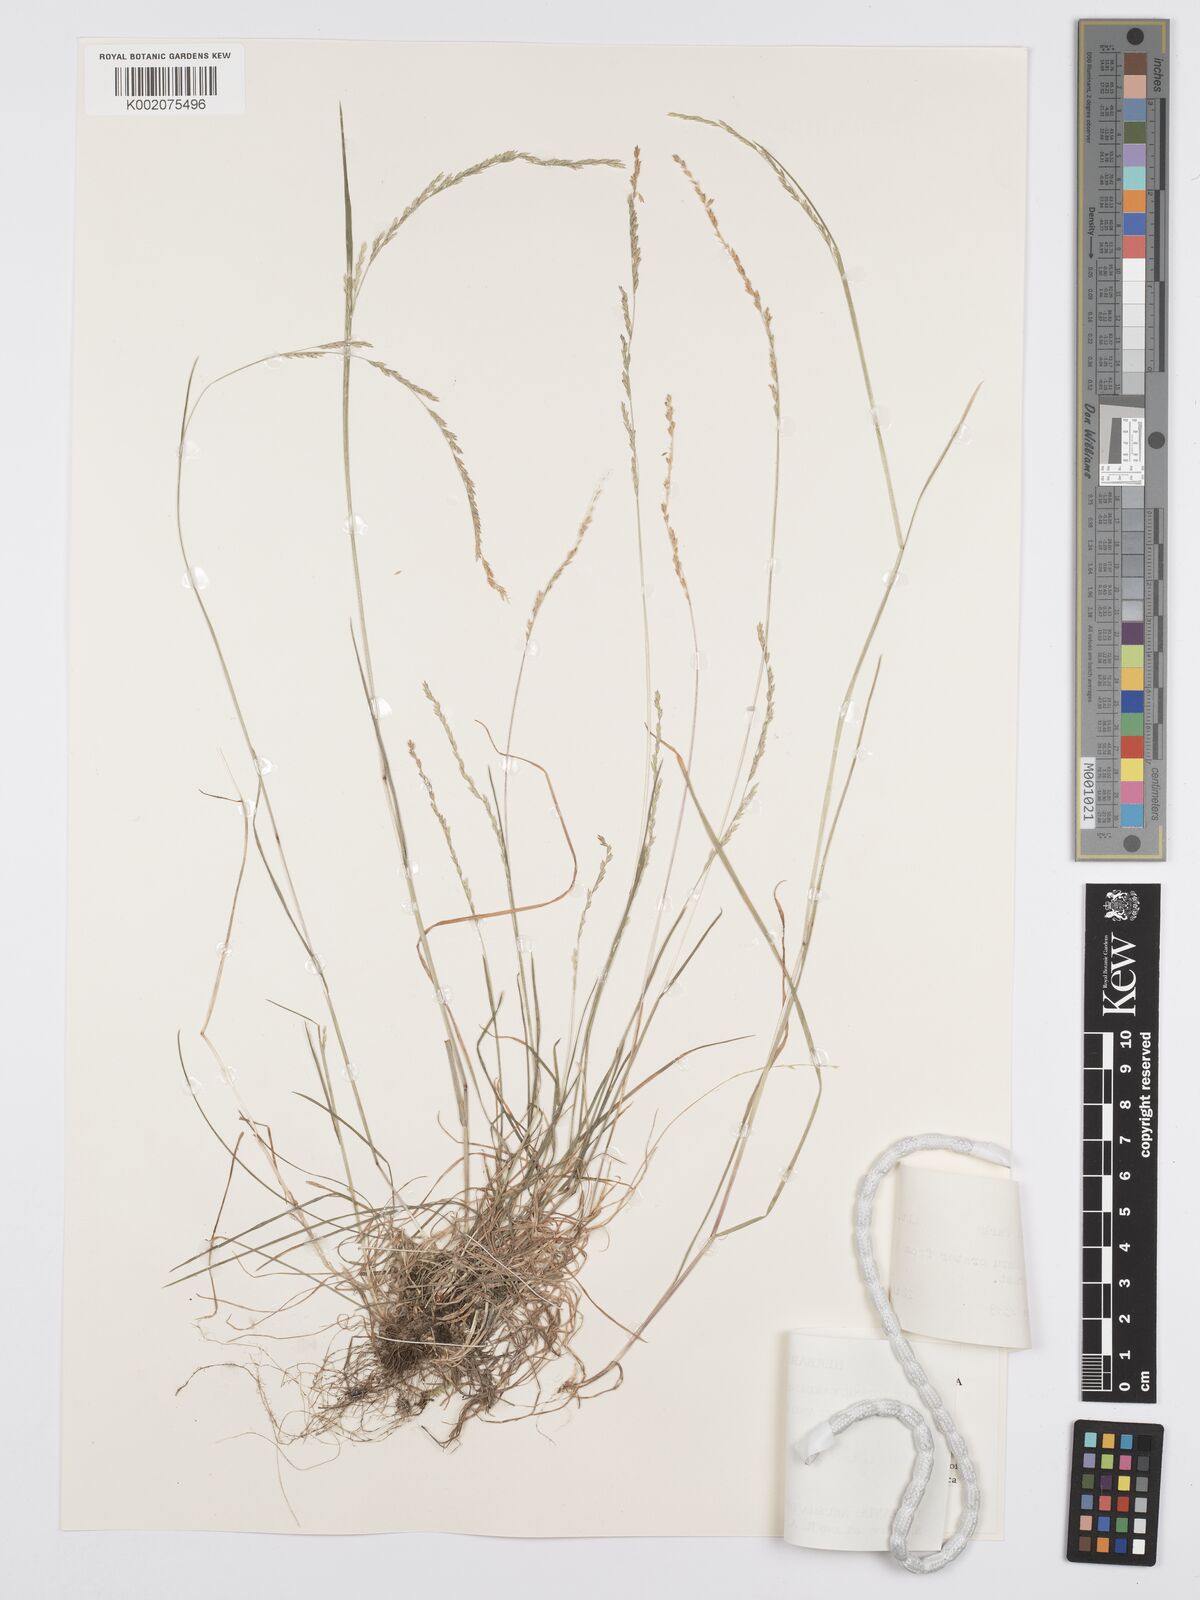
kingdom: Plantae
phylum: Tracheophyta
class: Liliopsida
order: Poales
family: Poaceae
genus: Poa
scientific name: Poa leptoclada
